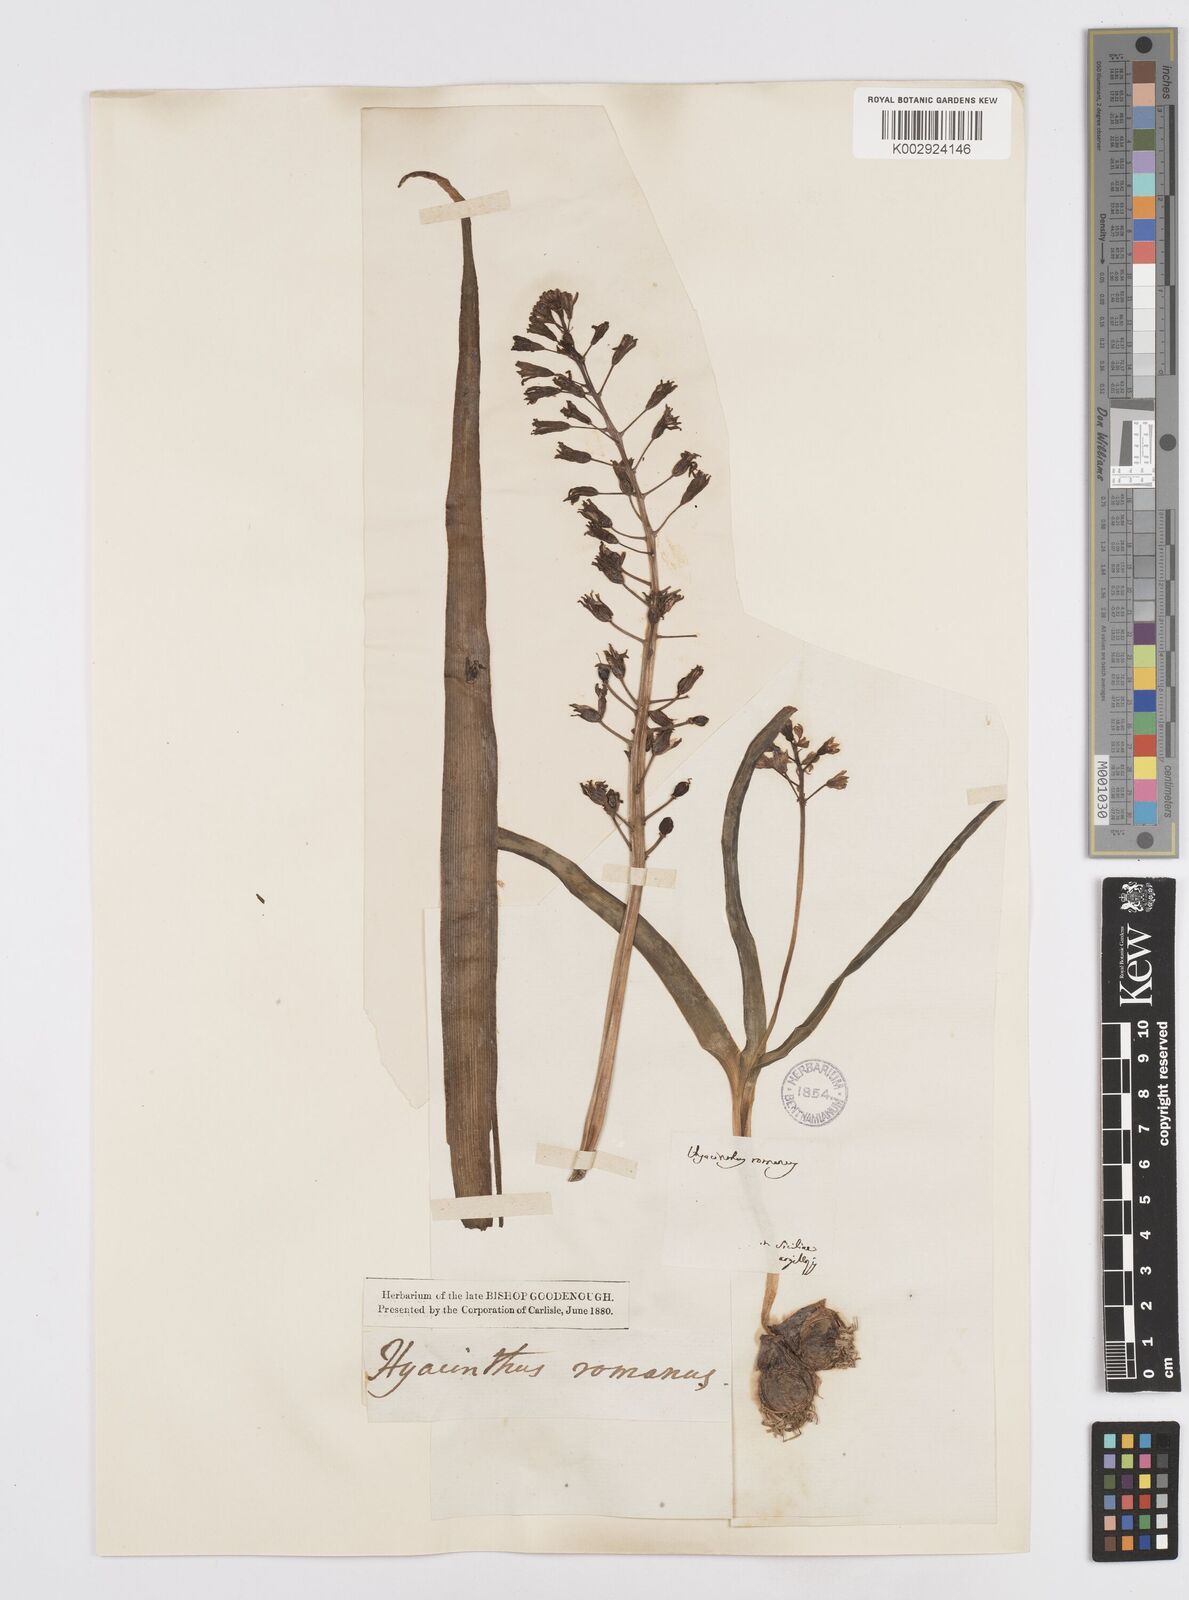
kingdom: Plantae
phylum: Tracheophyta
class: Liliopsida
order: Asparagales
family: Asparagaceae
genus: Bellevalia
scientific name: Bellevalia
